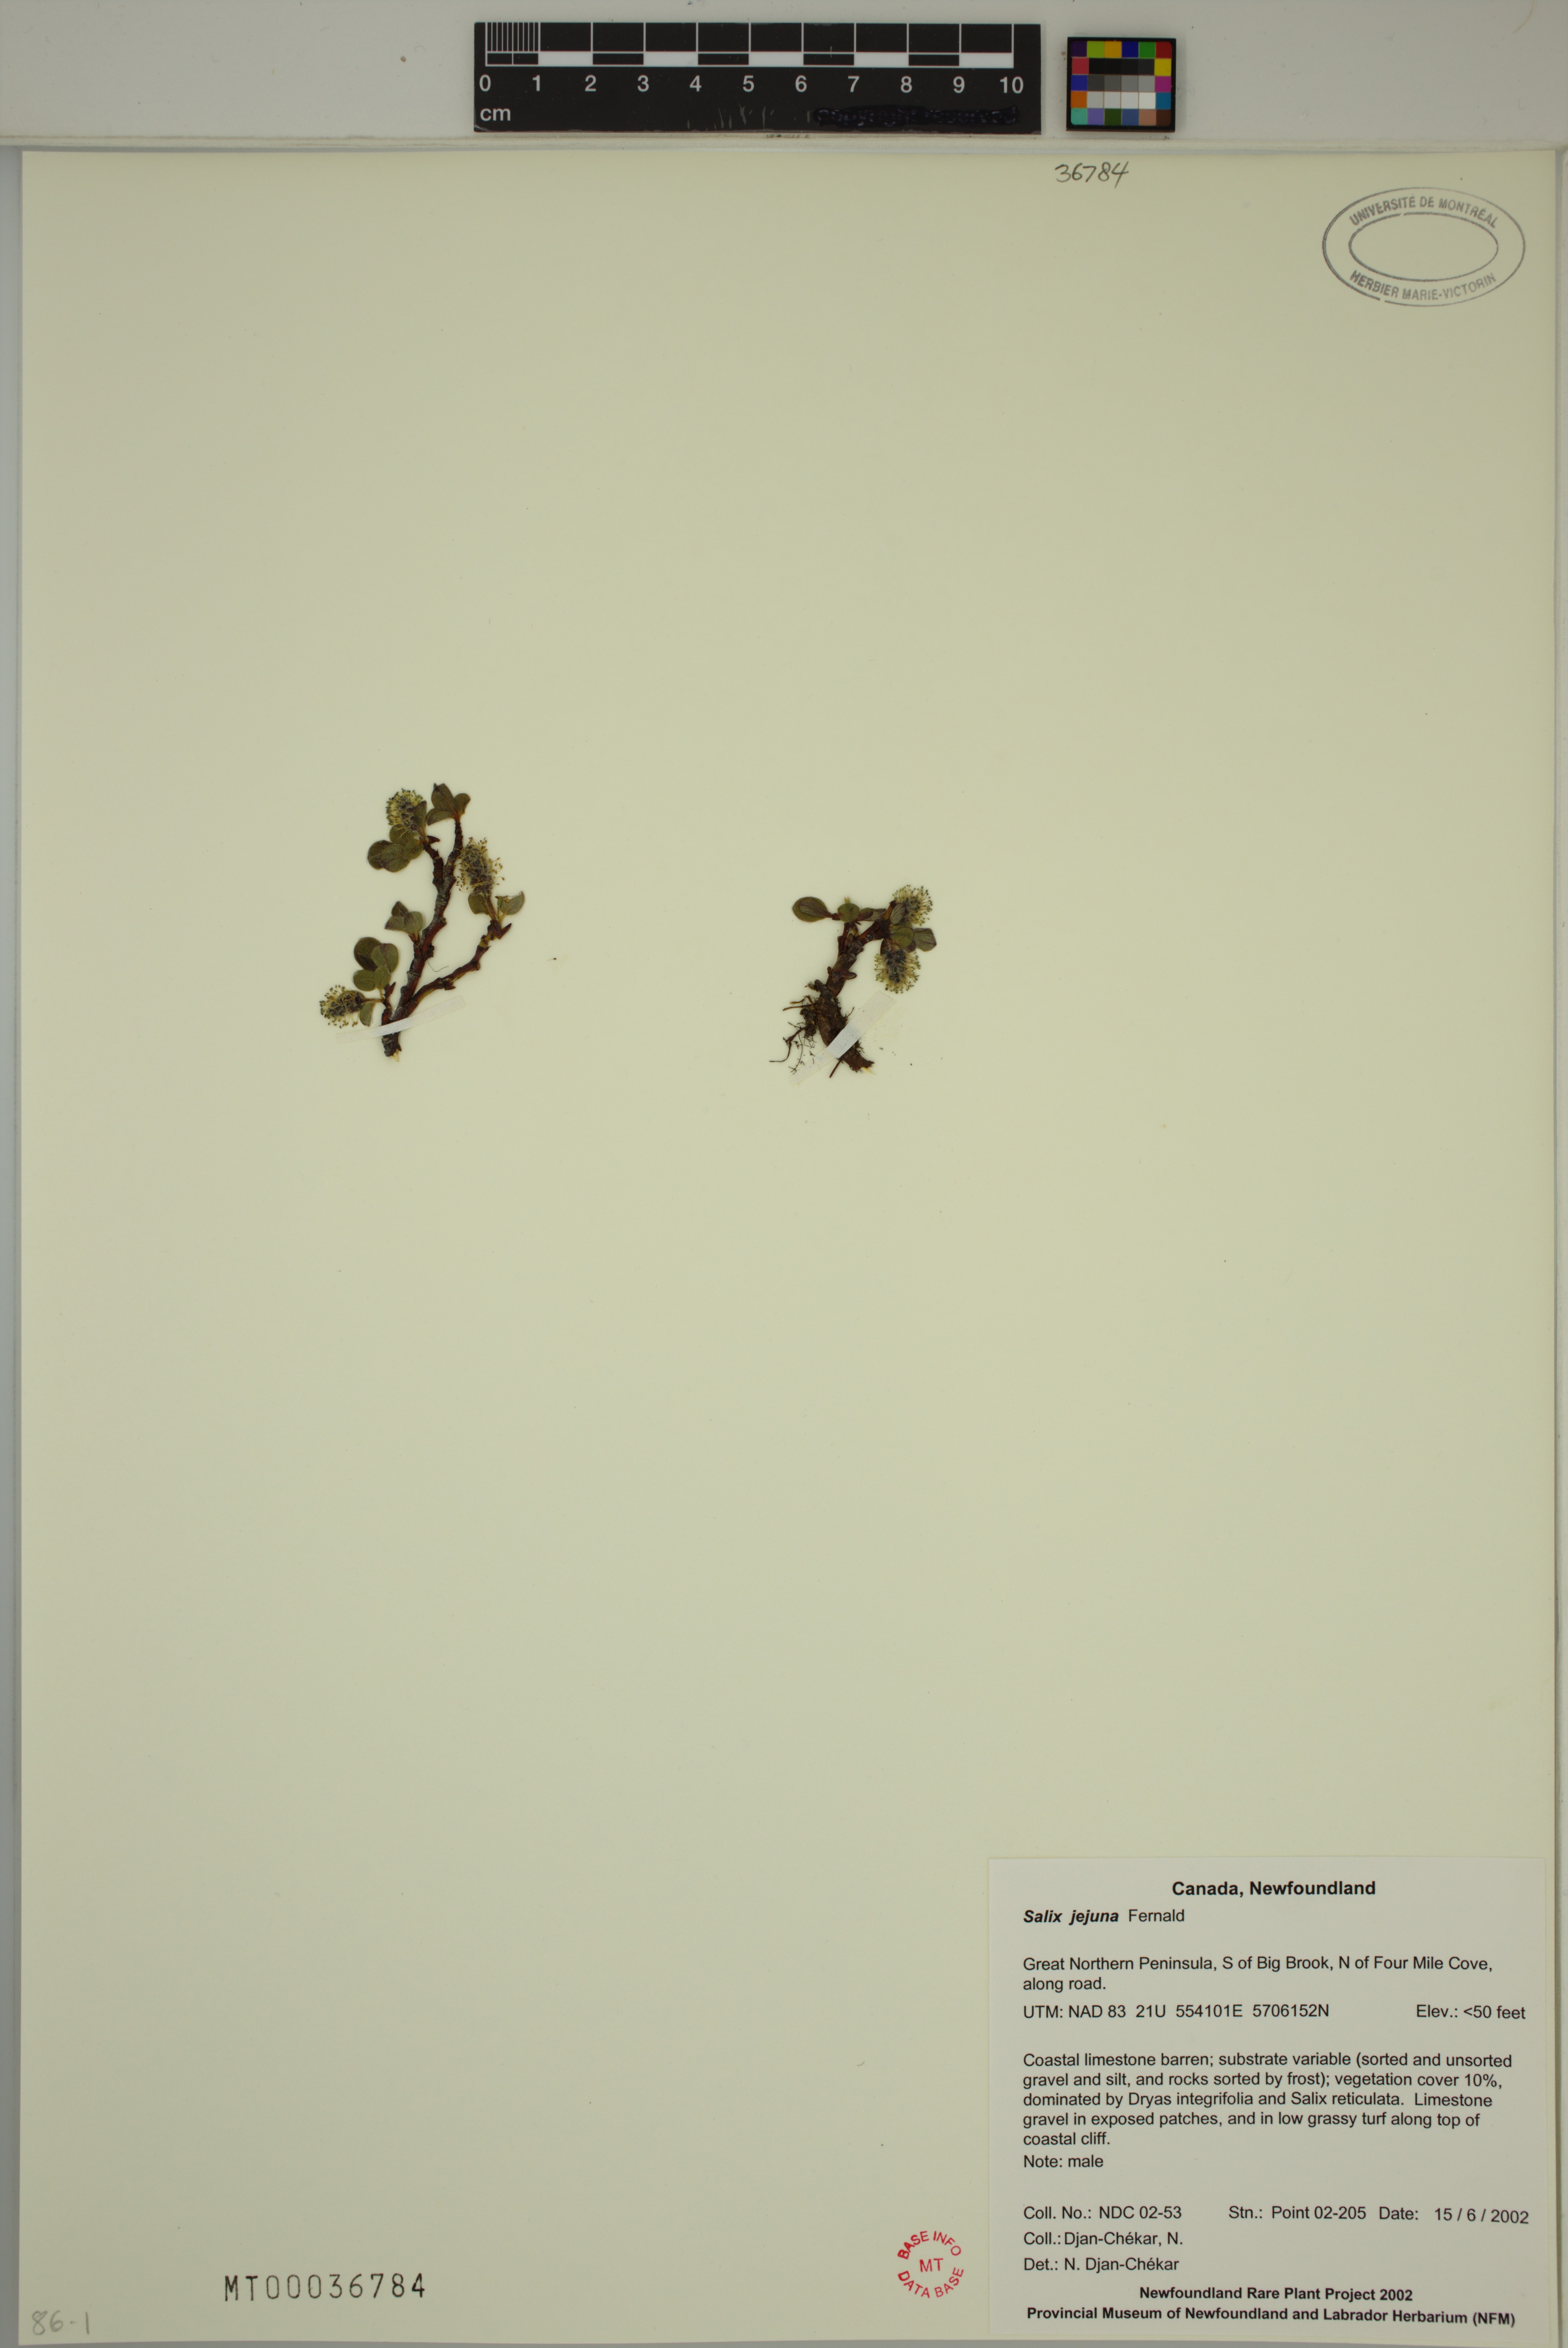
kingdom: Plantae
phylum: Tracheophyta
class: Magnoliopsida
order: Malpighiales
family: Salicaceae
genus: Salix
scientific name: Salix jejuna
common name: Belle isle dwarf willow
